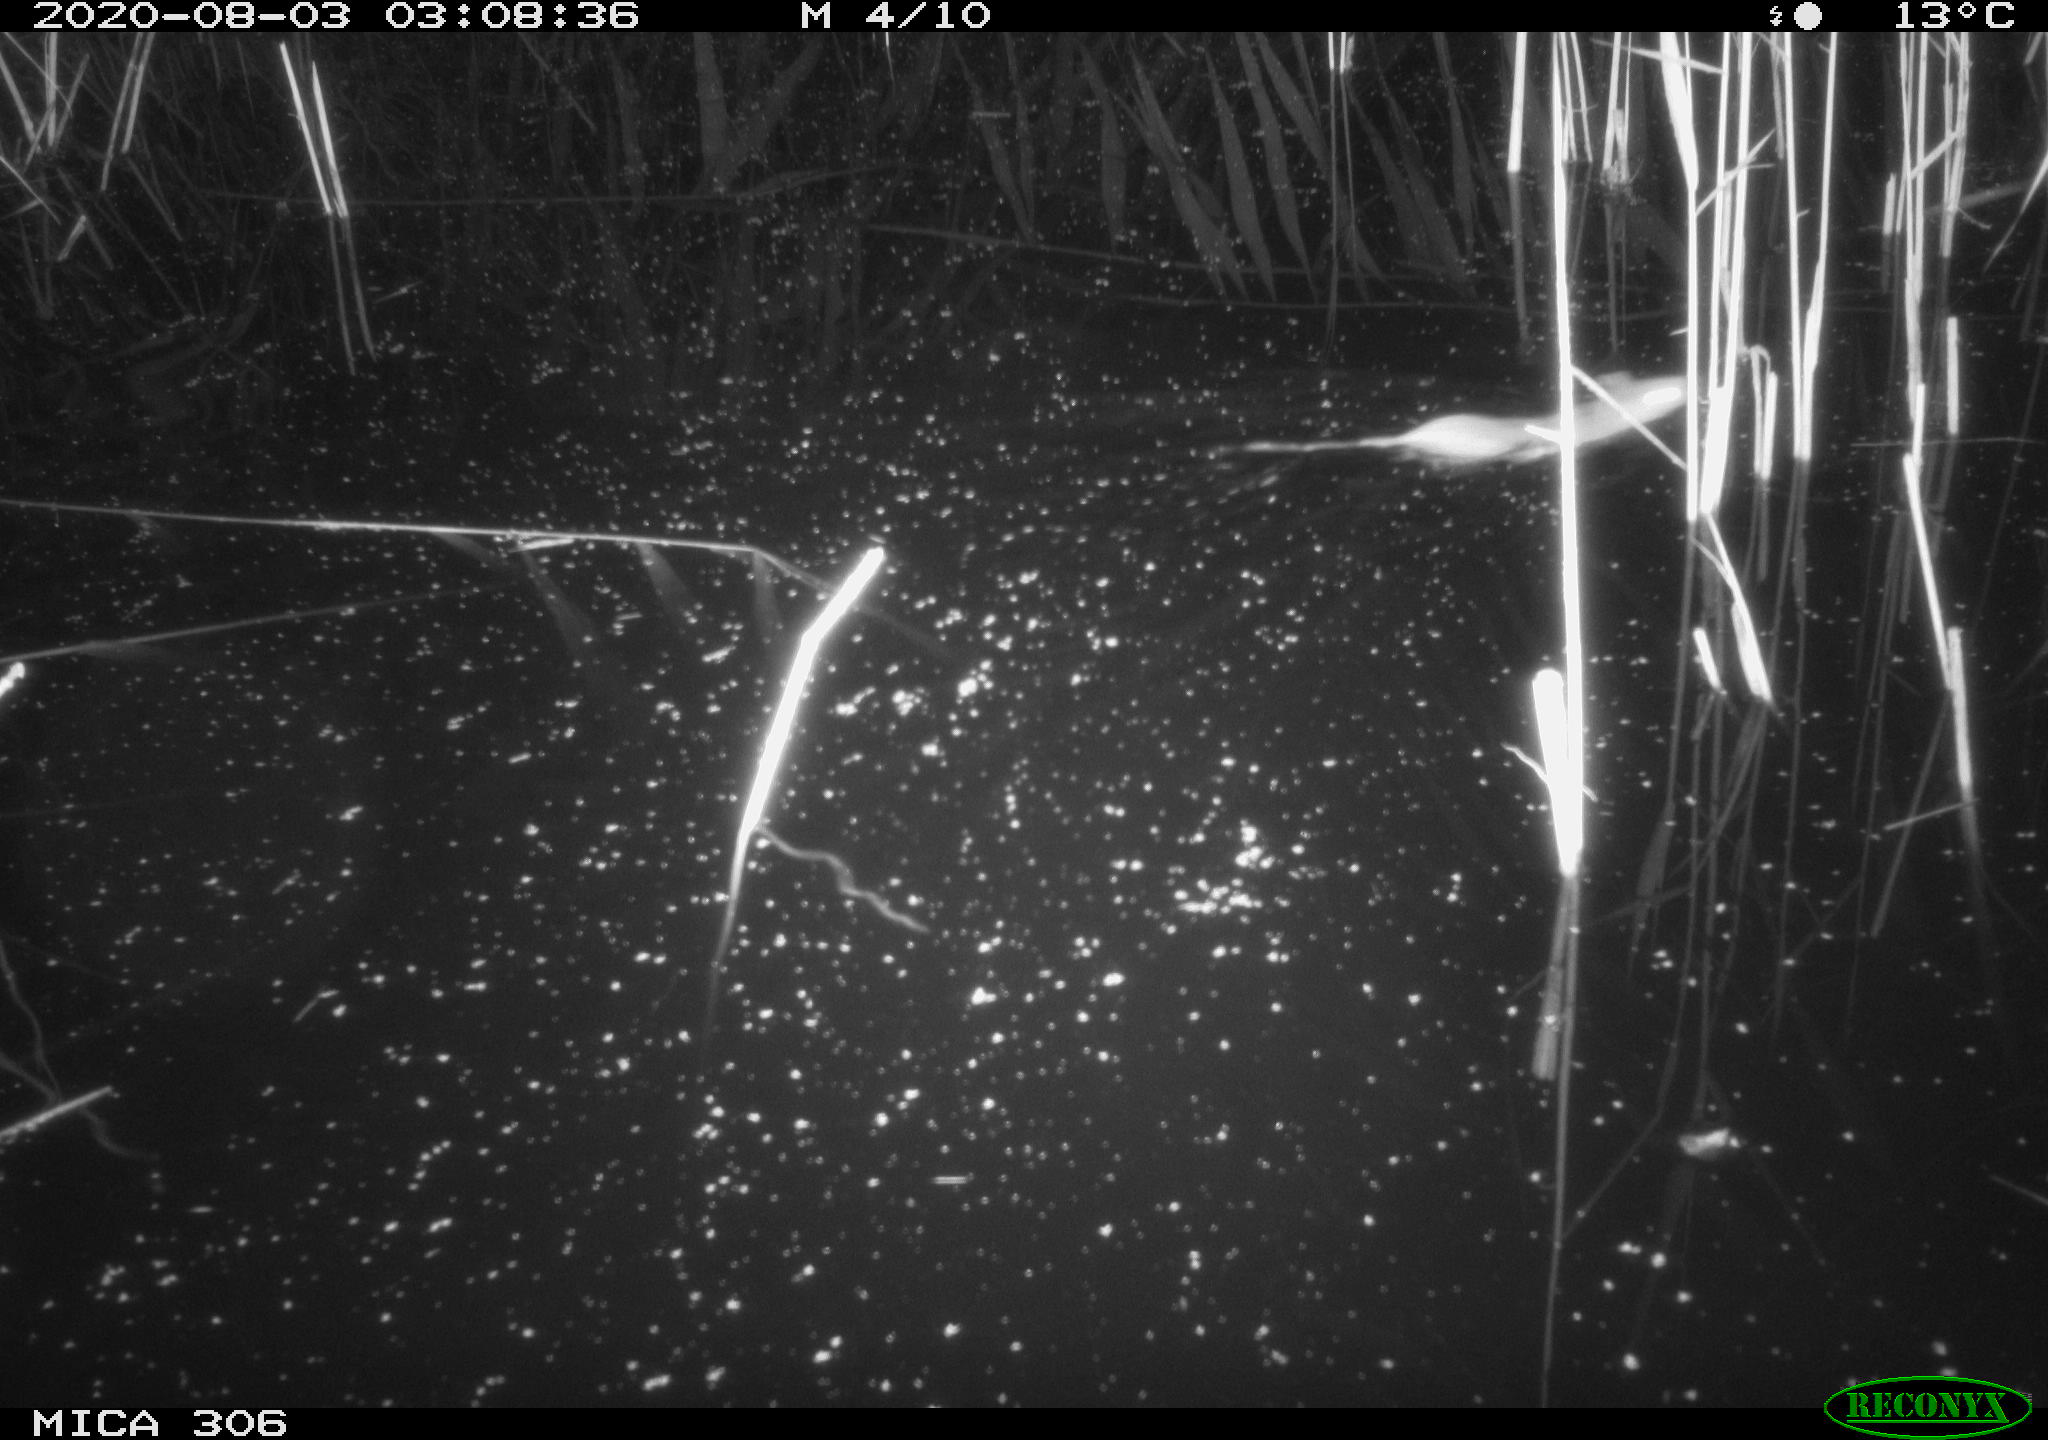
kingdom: Animalia
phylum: Chordata
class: Mammalia
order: Rodentia
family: Muridae
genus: Rattus
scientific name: Rattus norvegicus
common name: Brown rat
